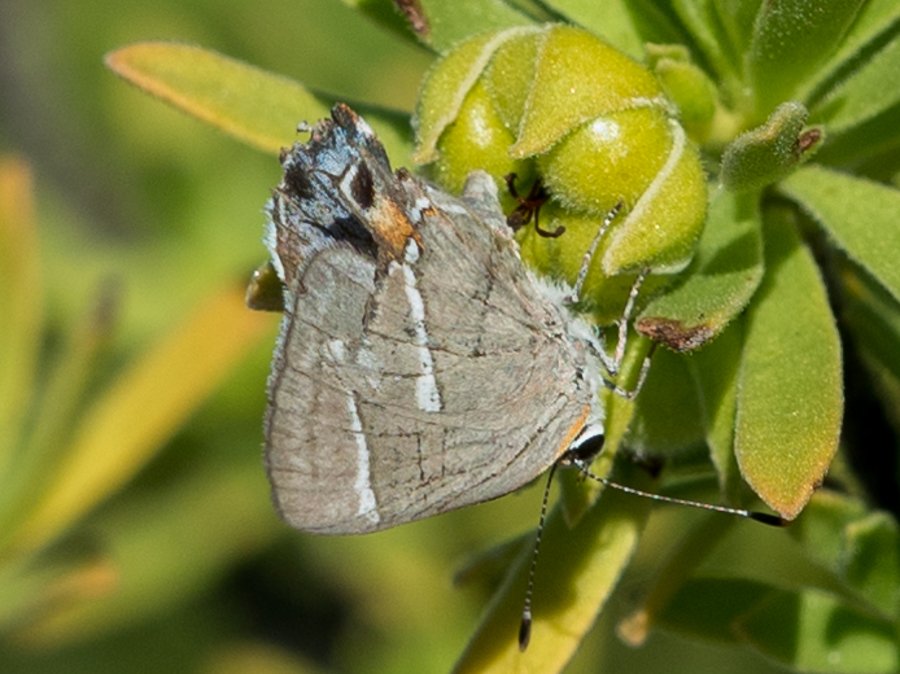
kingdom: Animalia
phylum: Arthropoda
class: Insecta
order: Lepidoptera
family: Lycaenidae
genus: Thecla
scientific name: Thecla martialis
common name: Martial Scrub-Hairstreak
